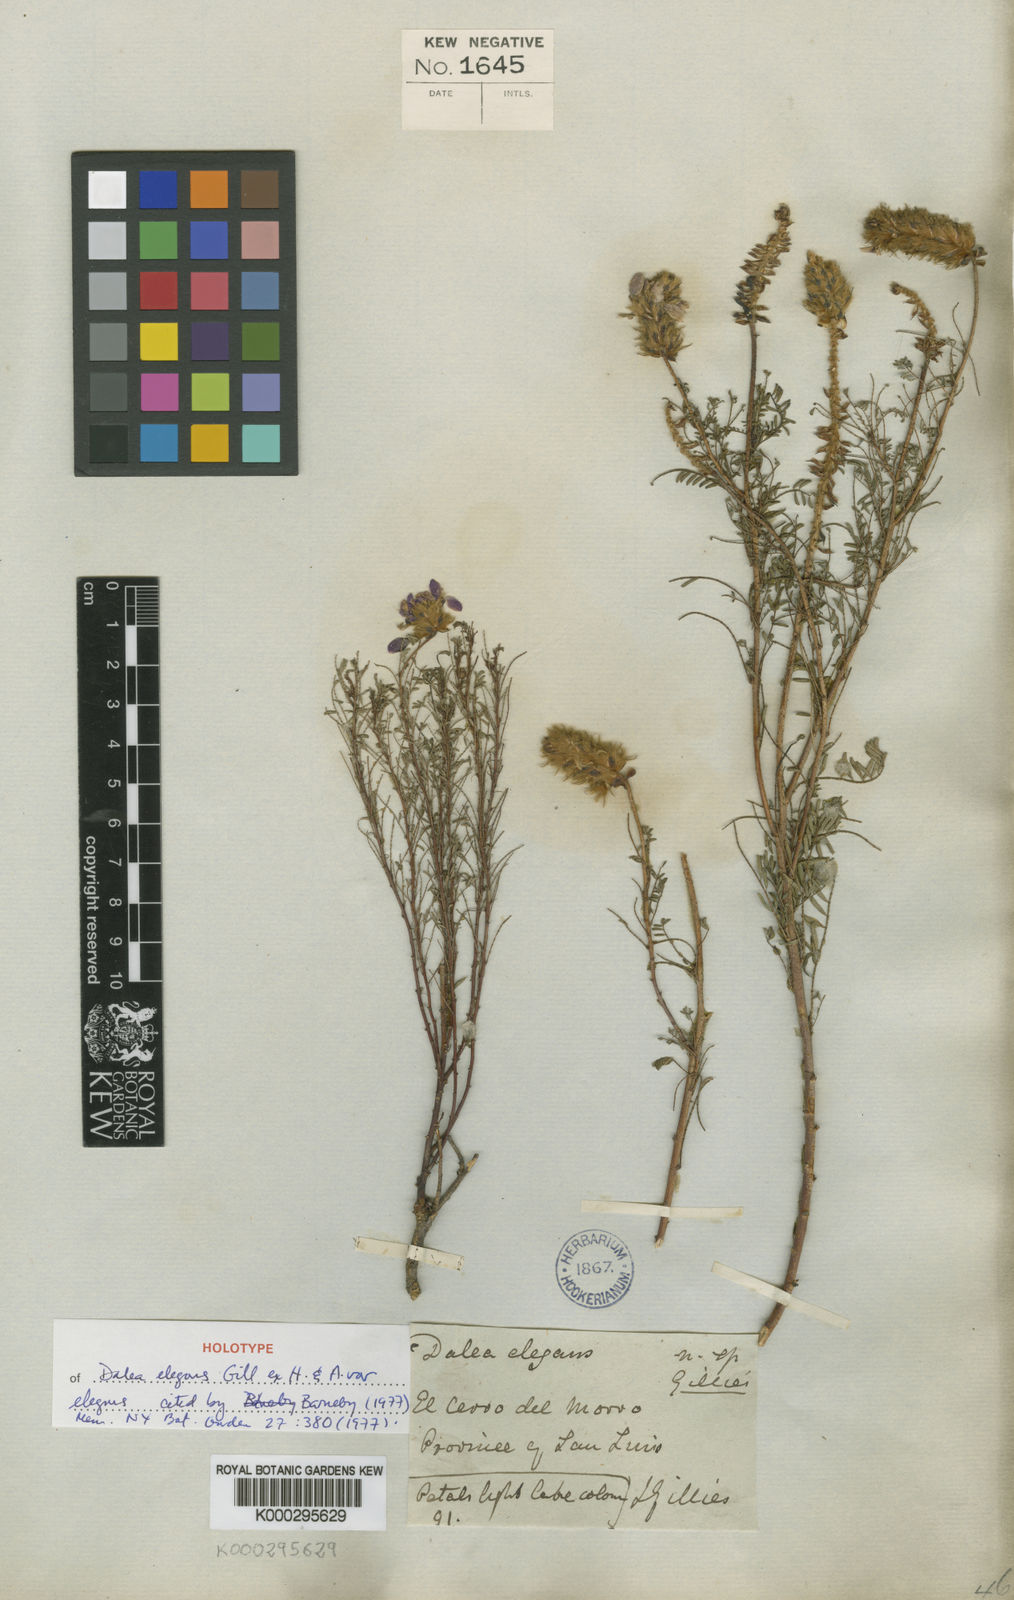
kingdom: Plantae
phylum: Tracheophyta
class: Magnoliopsida
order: Fabales
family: Fabaceae
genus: Dalea
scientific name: Dalea elegans
